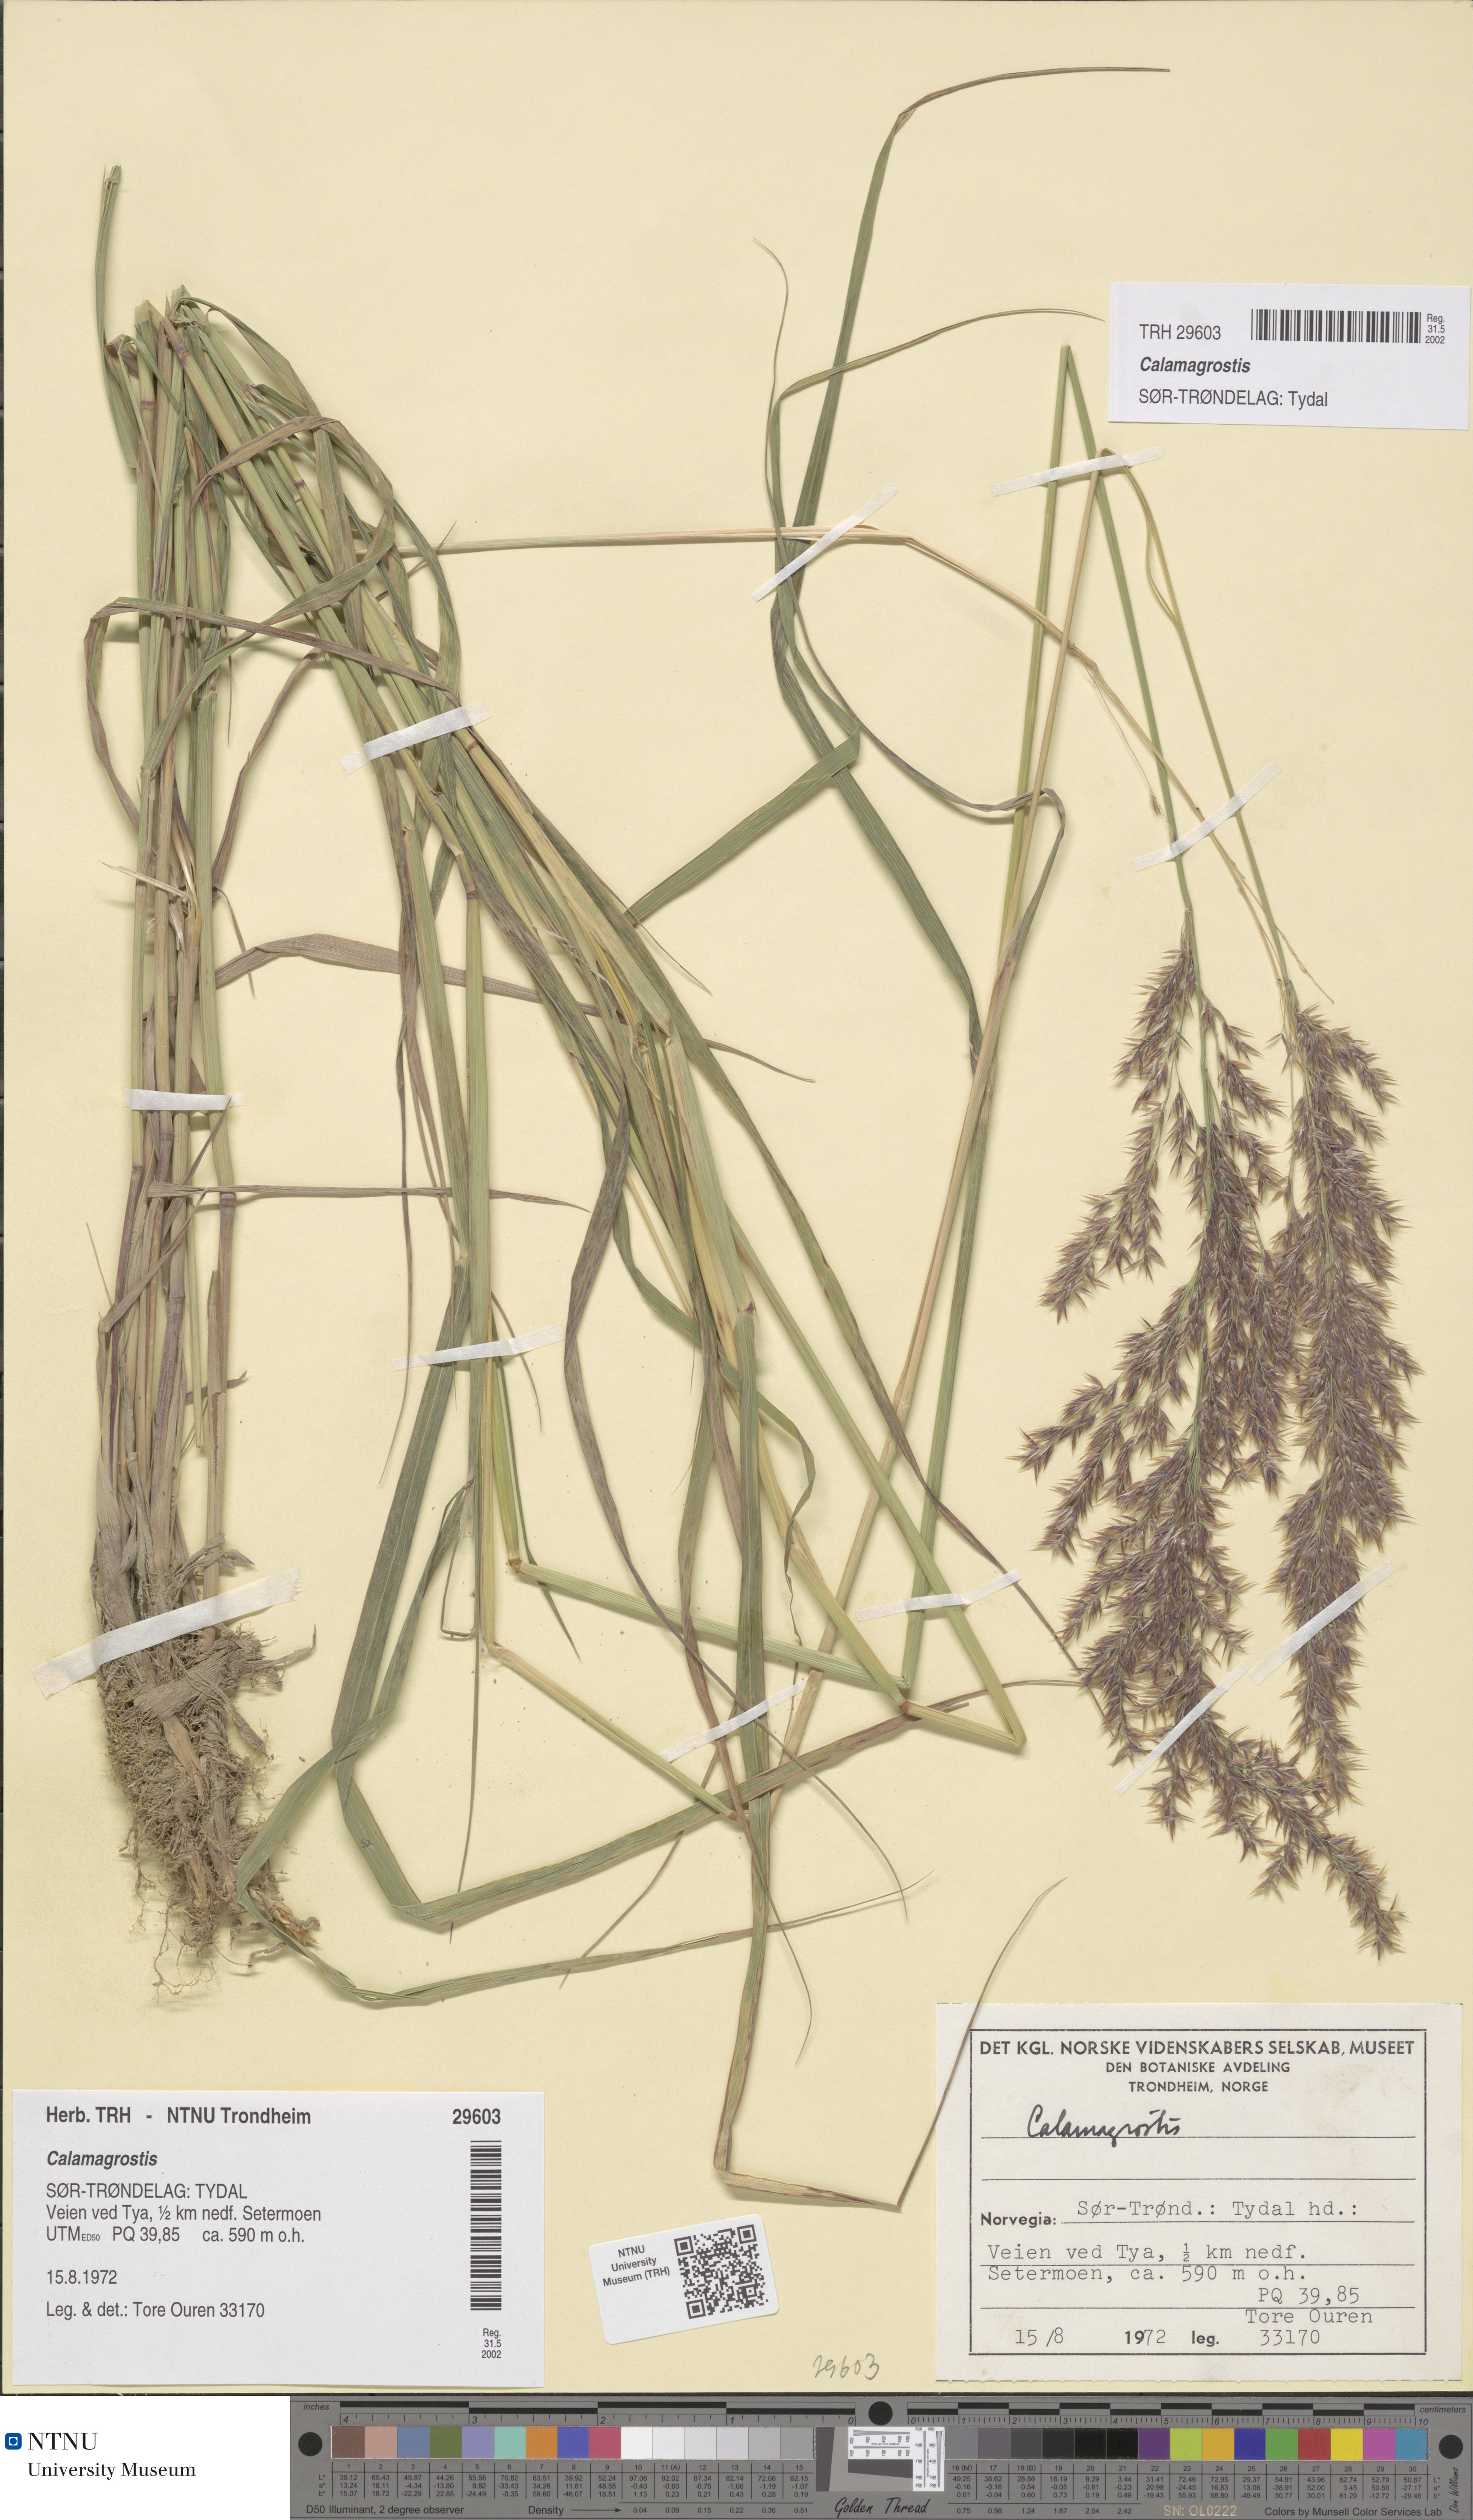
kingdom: Plantae
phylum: Tracheophyta
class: Liliopsida
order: Poales
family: Poaceae
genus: Calamagrostis
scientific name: Calamagrostis
